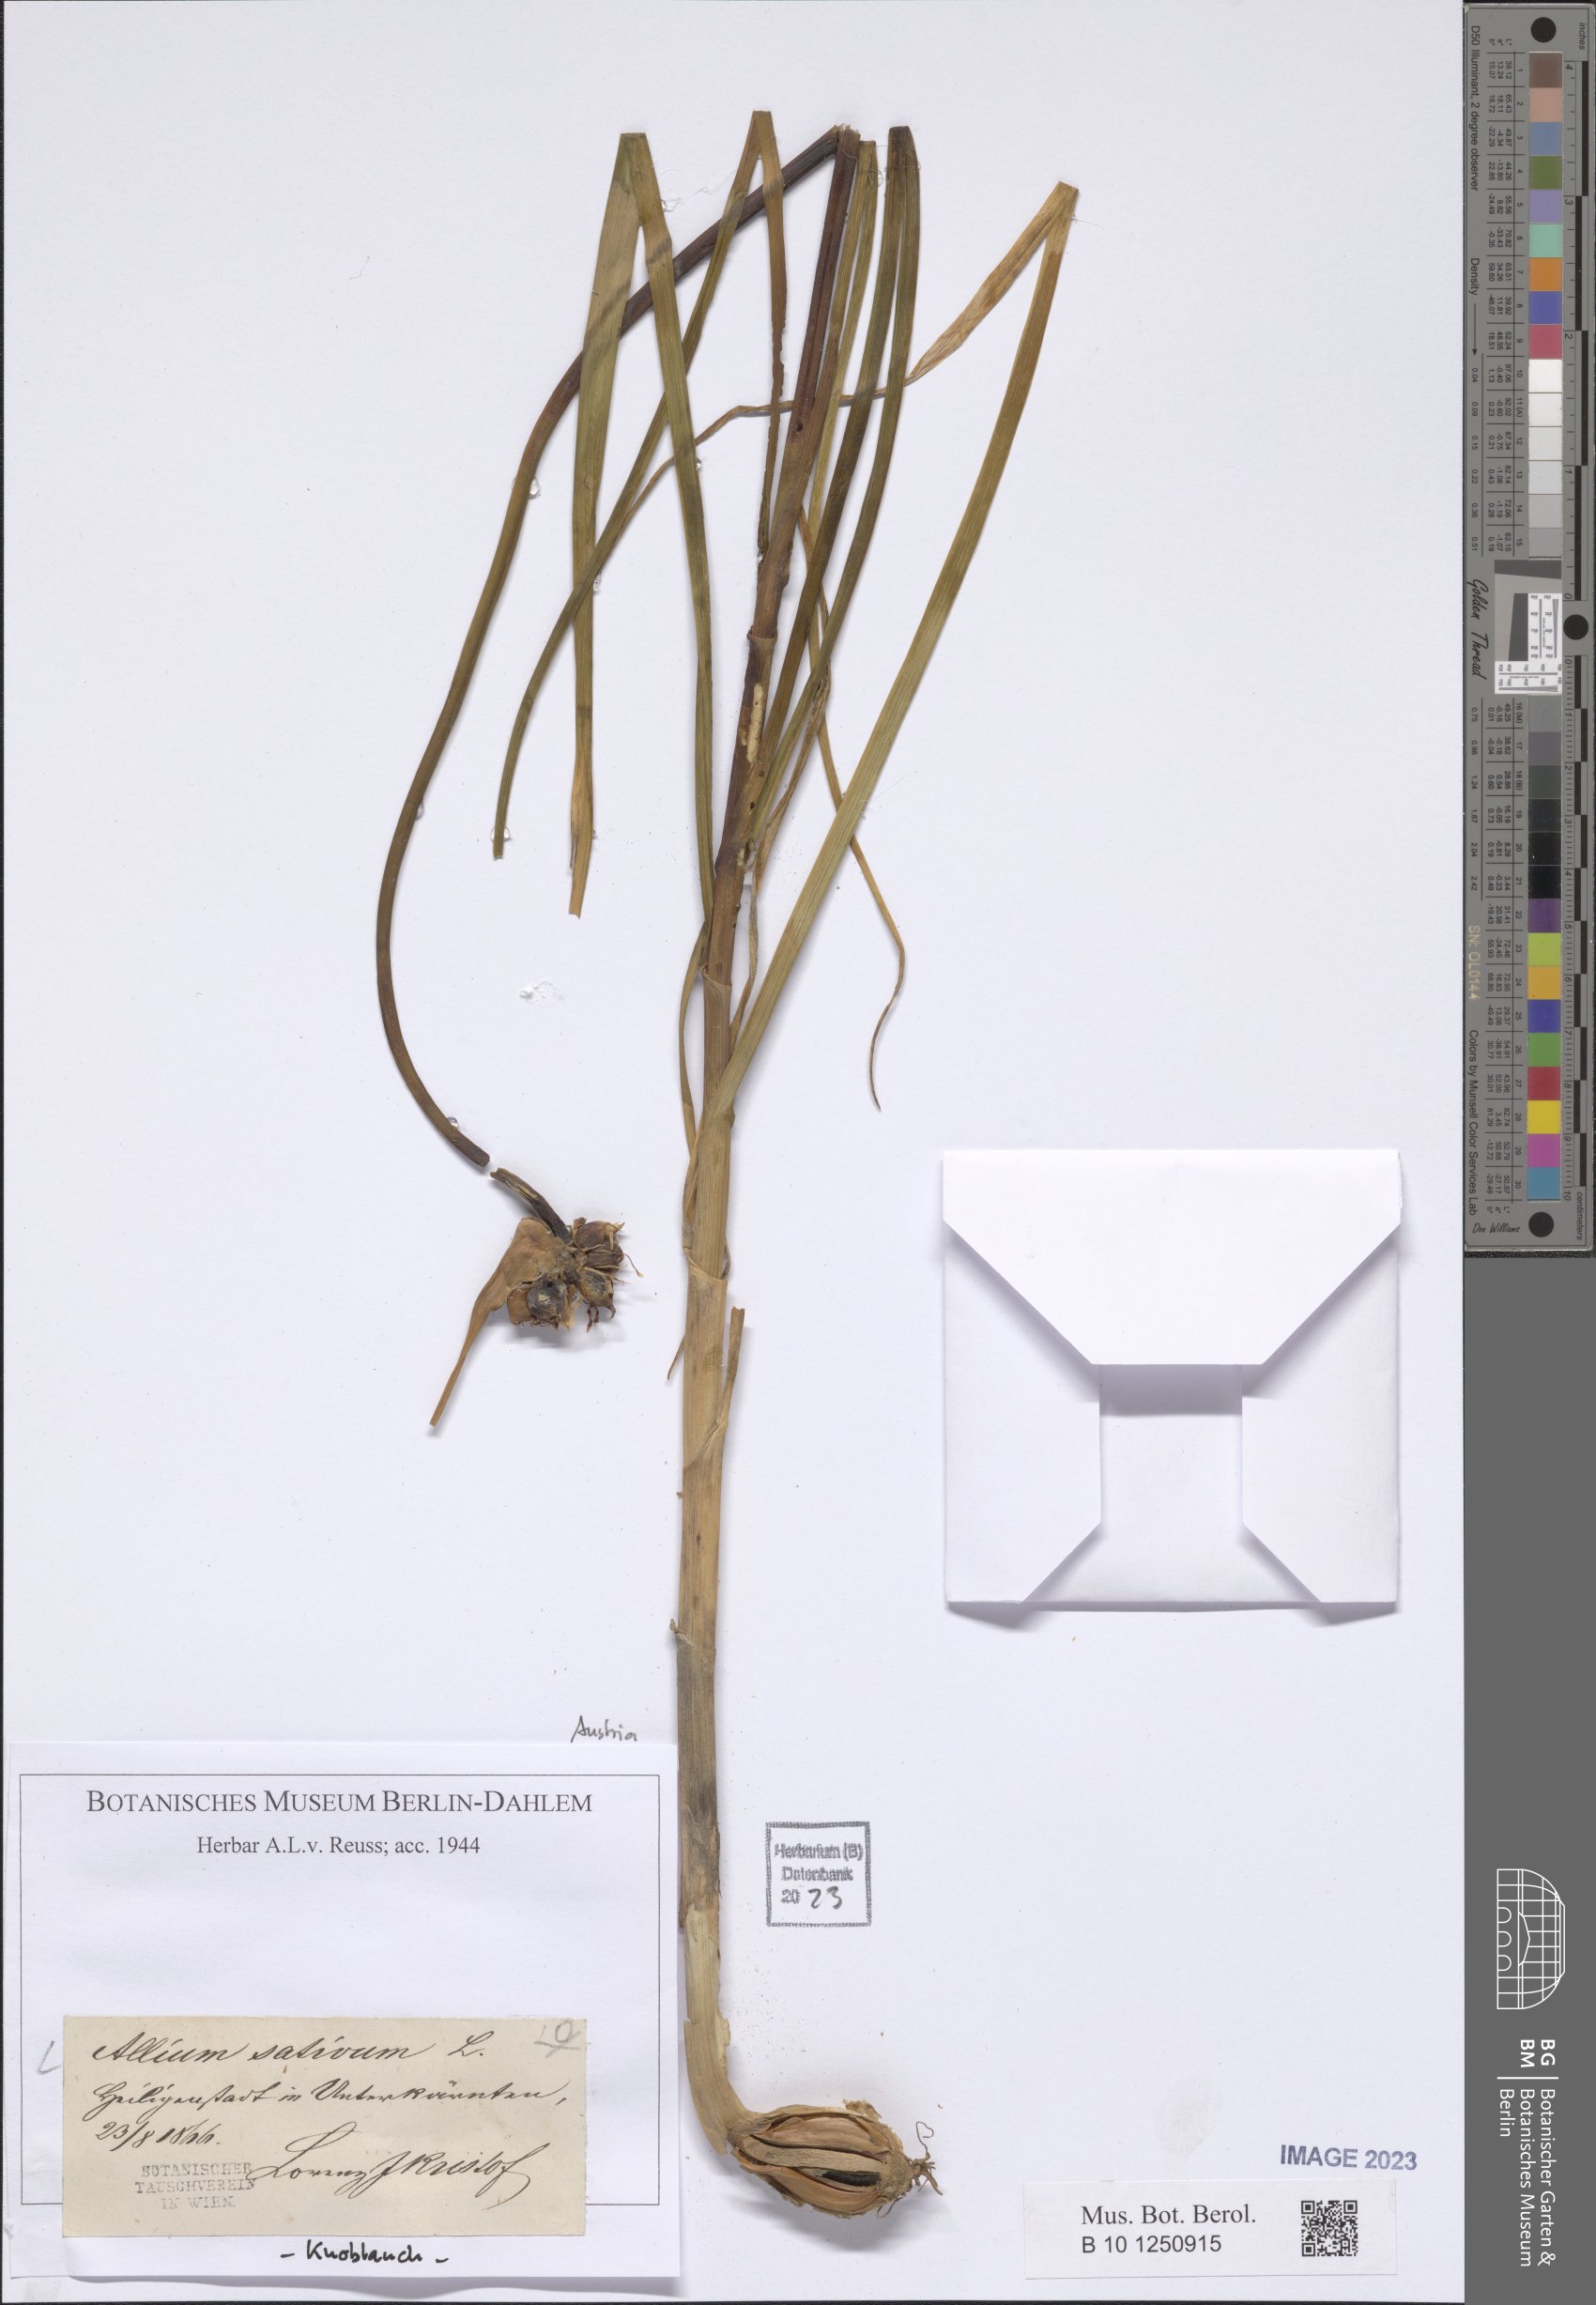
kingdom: Plantae
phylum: Tracheophyta
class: Liliopsida
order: Asparagales
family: Amaryllidaceae
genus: Allium
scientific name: Allium sativum
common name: Garlic
